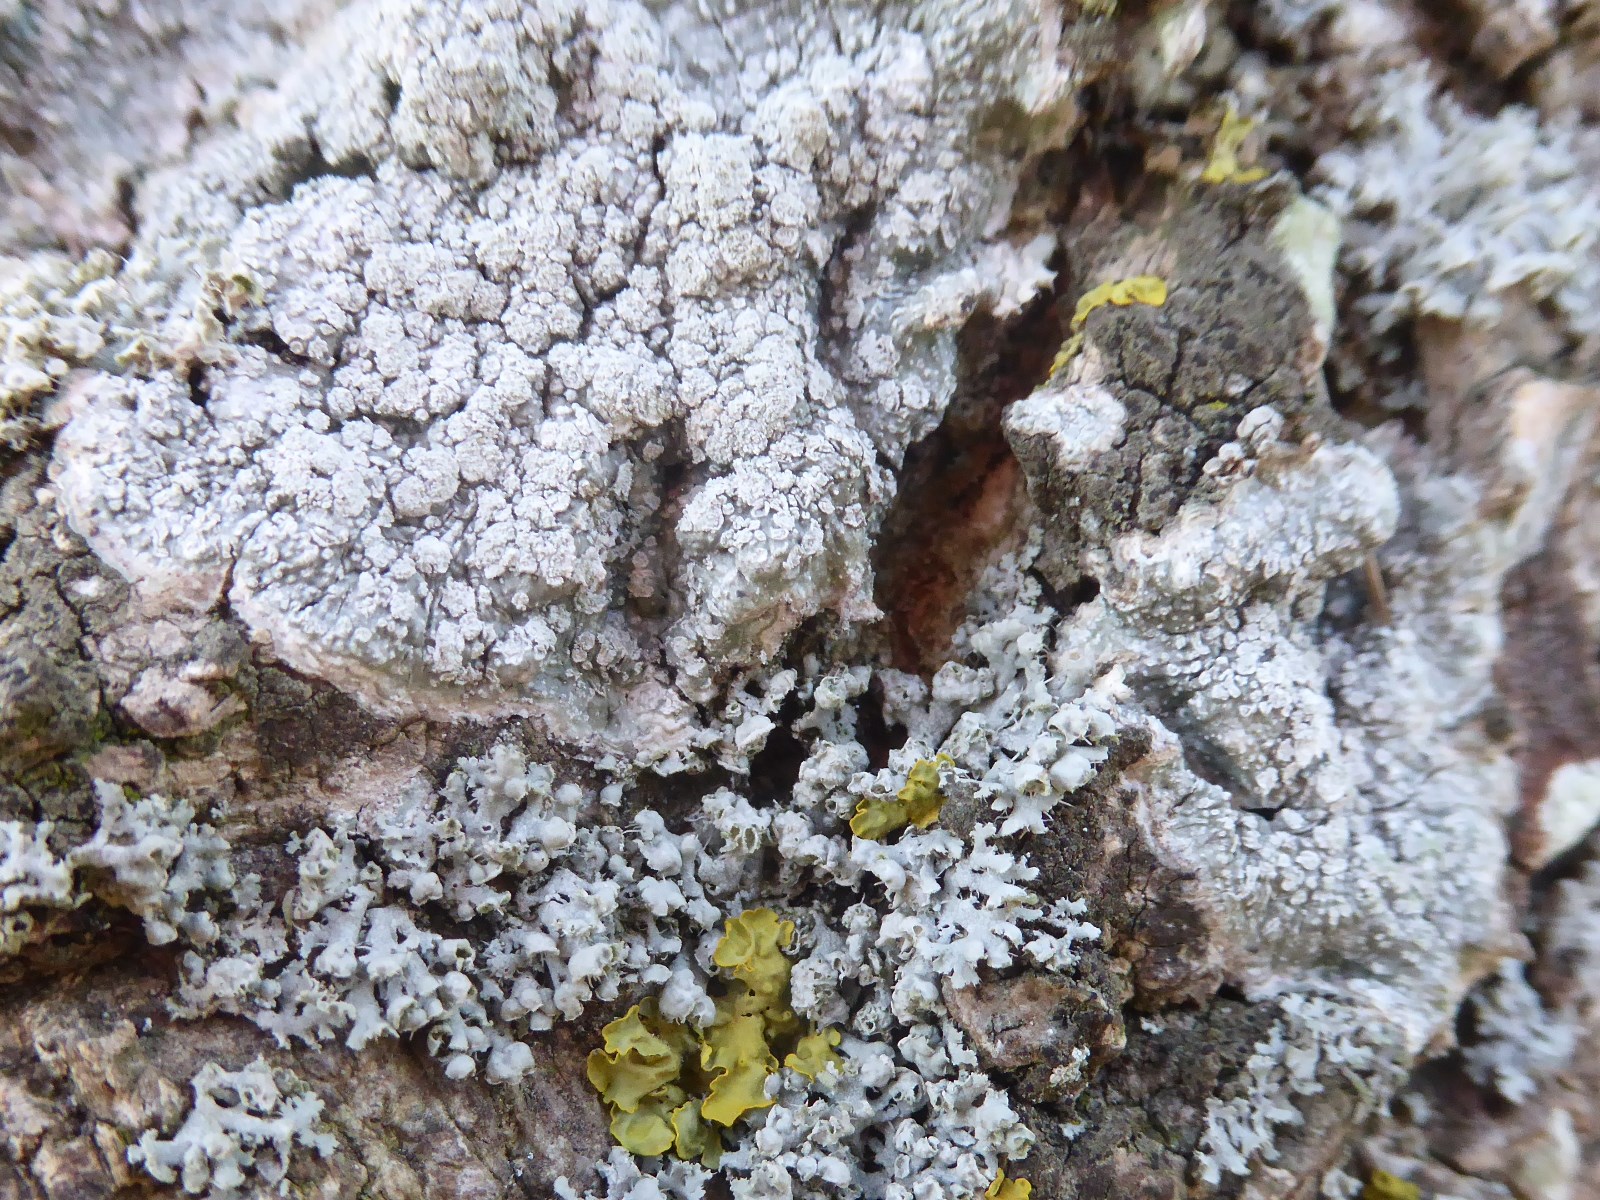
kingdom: Fungi
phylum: Ascomycota
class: Lecanoromycetes
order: Pertusariales
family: Pertusariaceae
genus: Lepra
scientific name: Lepra amara
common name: bitter prikvortelav
